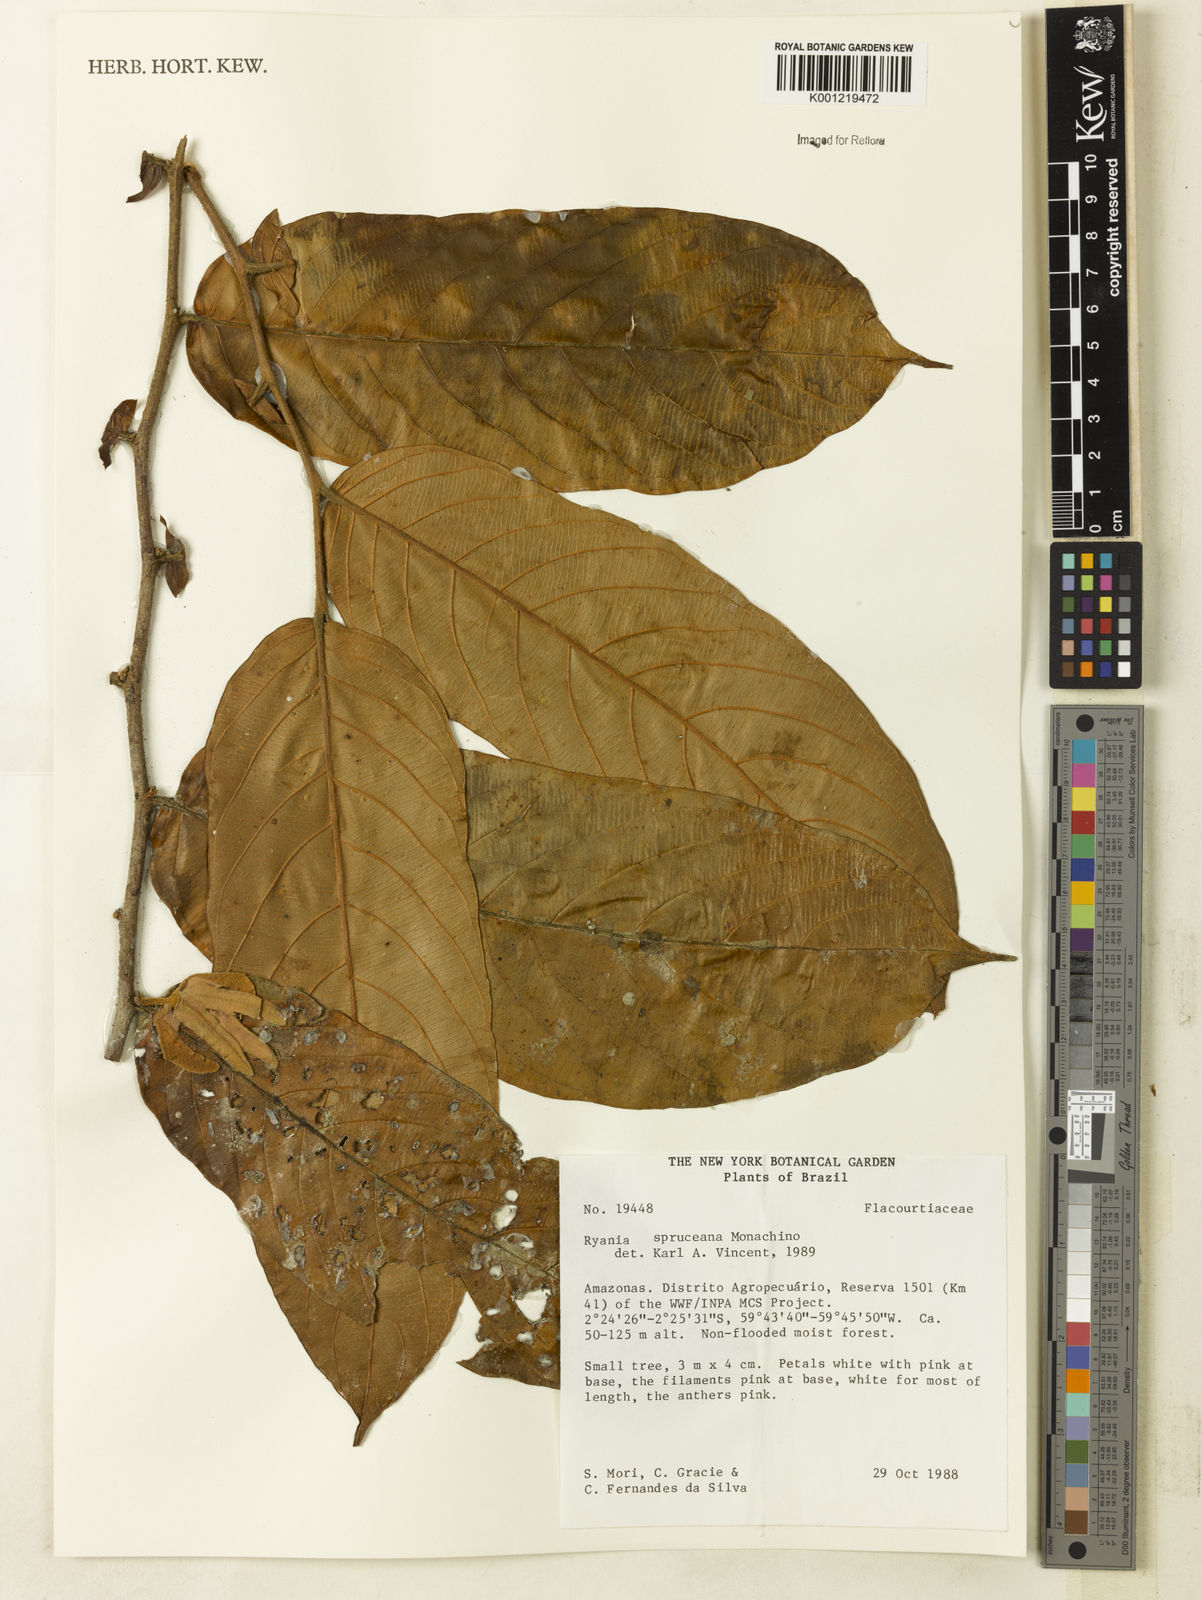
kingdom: Plantae
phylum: Tracheophyta
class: Magnoliopsida
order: Malpighiales
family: Salicaceae
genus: Ryania
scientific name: Ryania spruceana
